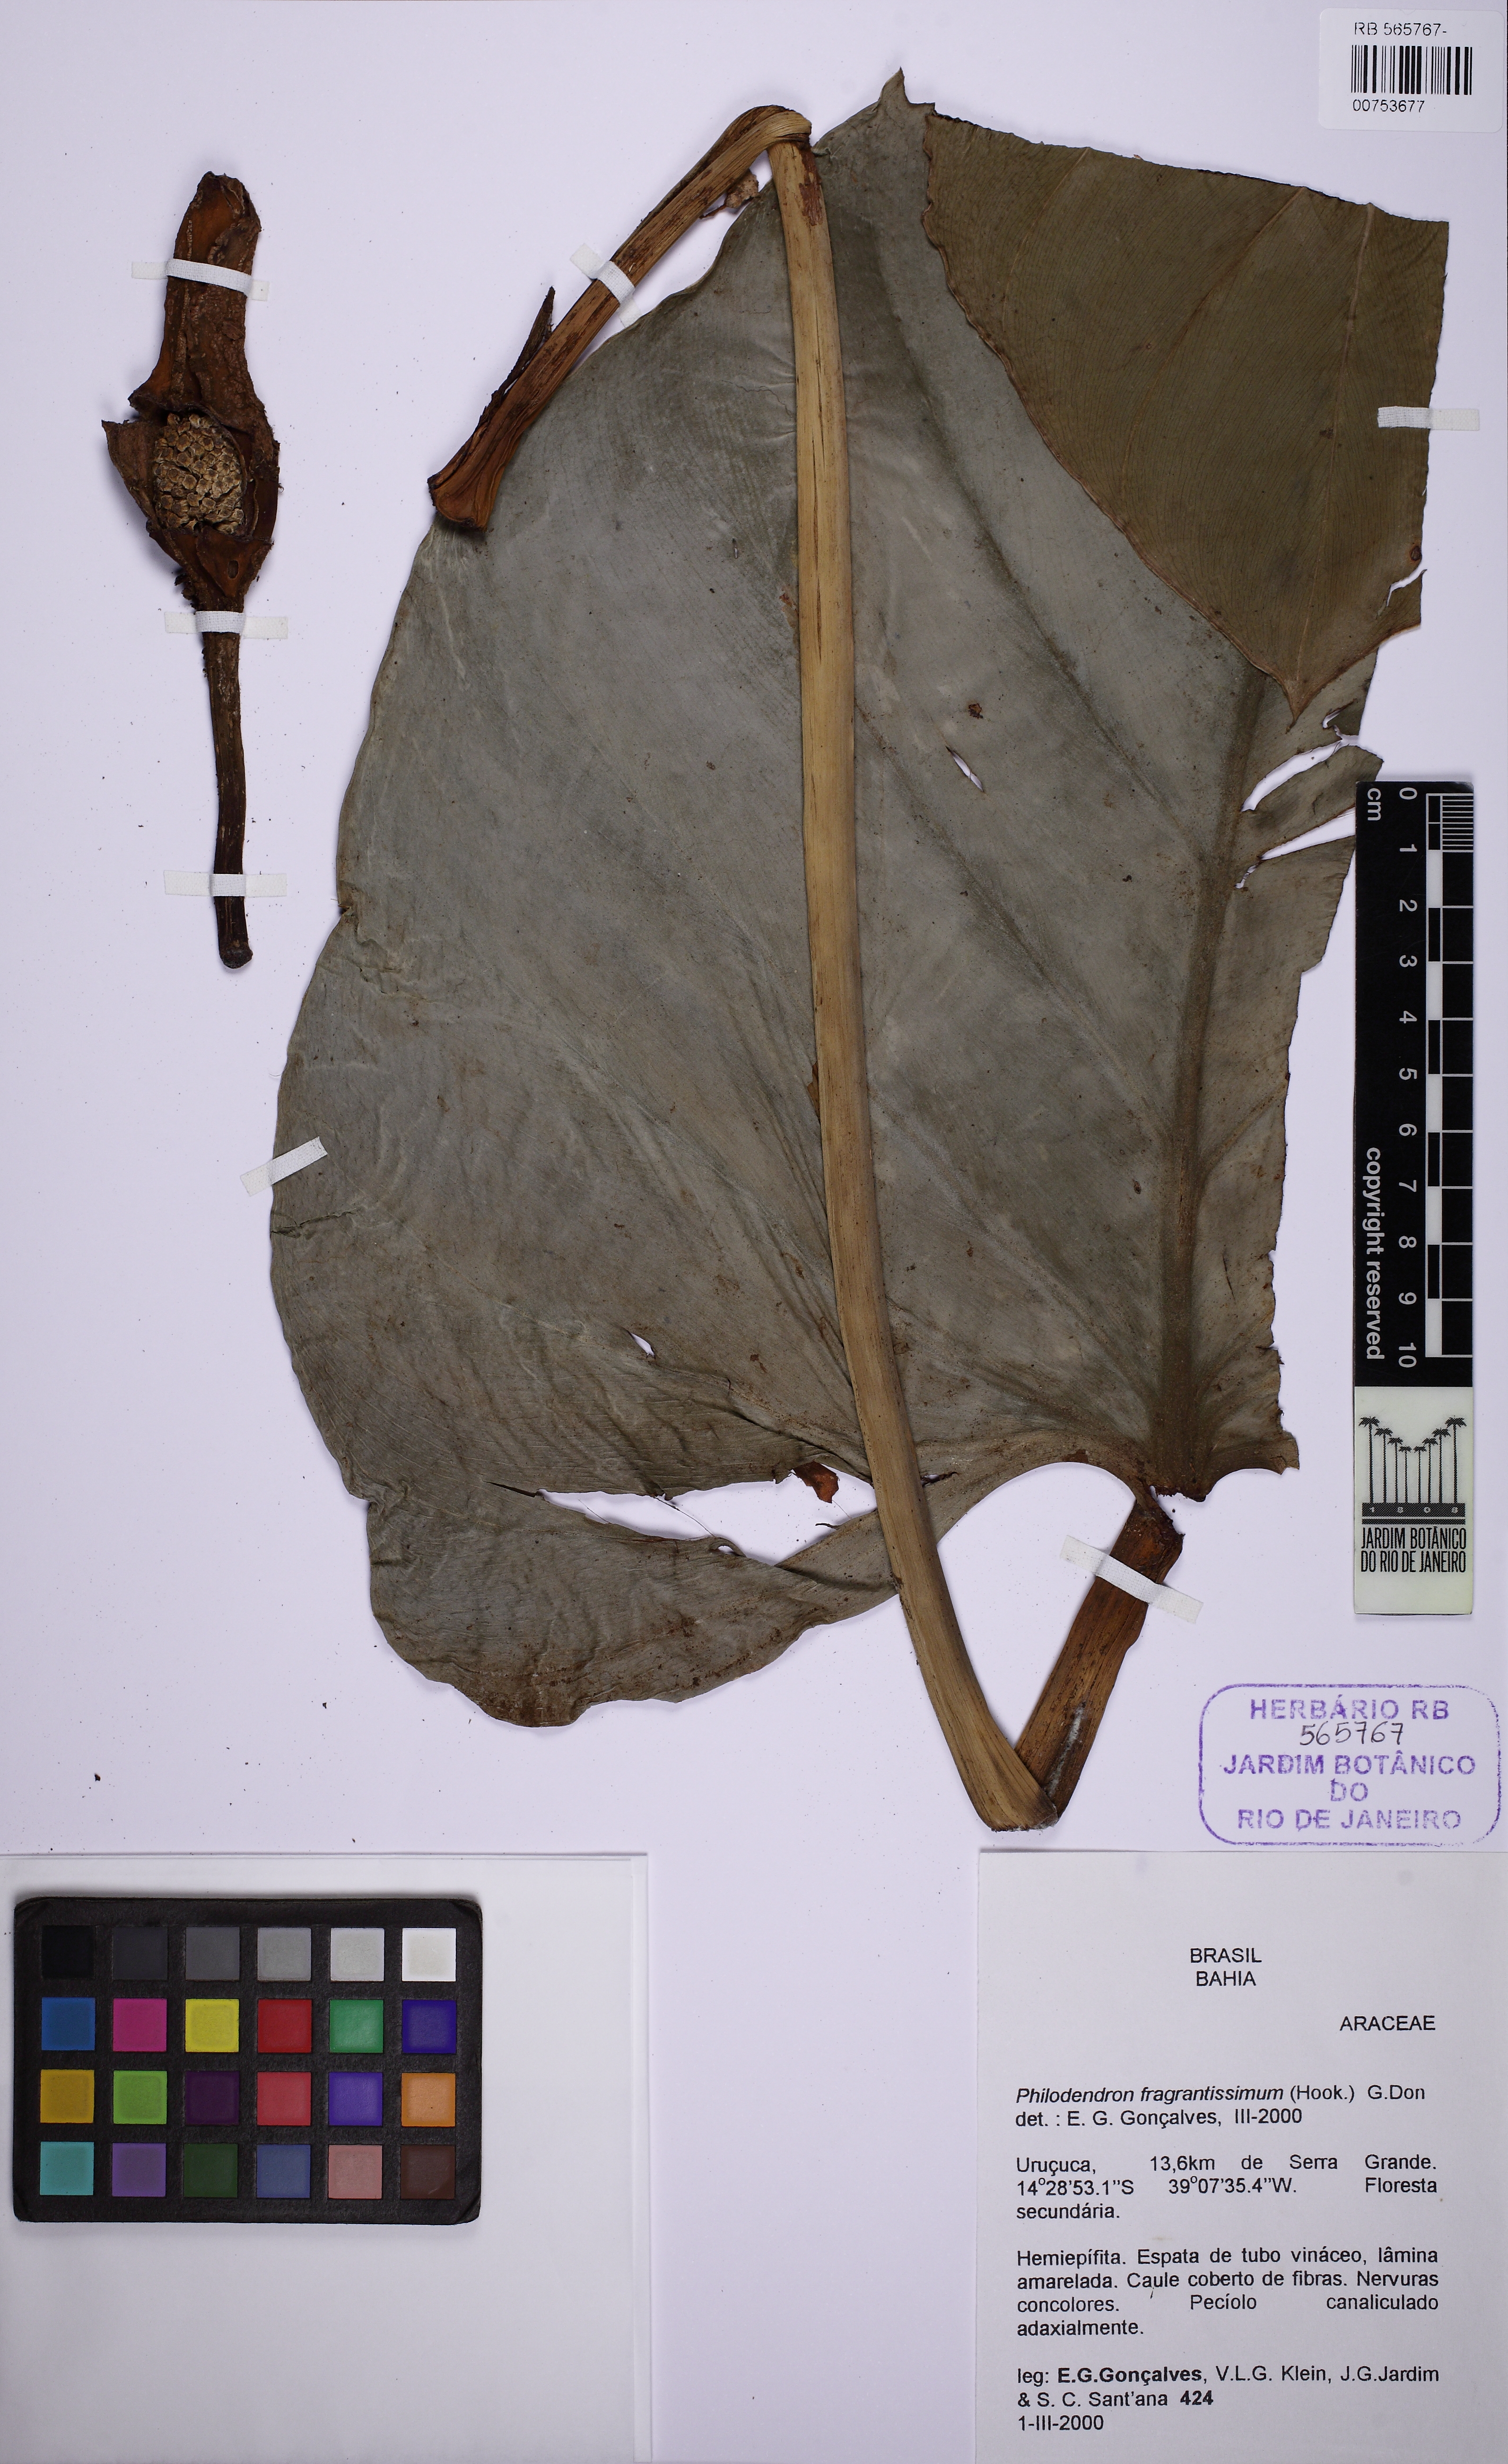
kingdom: Plantae
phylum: Tracheophyta
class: Liliopsida
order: Alismatales
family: Araceae
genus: Philodendron
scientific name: Philodendron fragrantissimum
